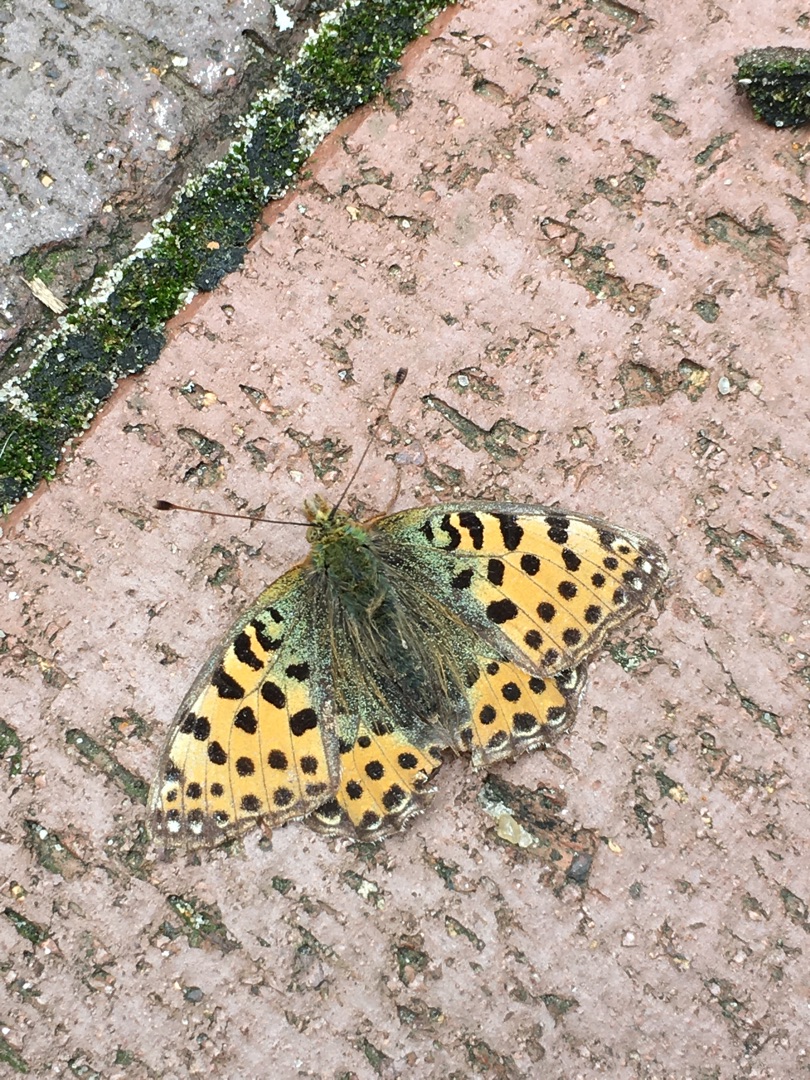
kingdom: Animalia
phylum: Arthropoda
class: Insecta
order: Lepidoptera
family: Nymphalidae
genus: Issoria
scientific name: Issoria lathonia
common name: Storplettet perlemorsommerfugl
